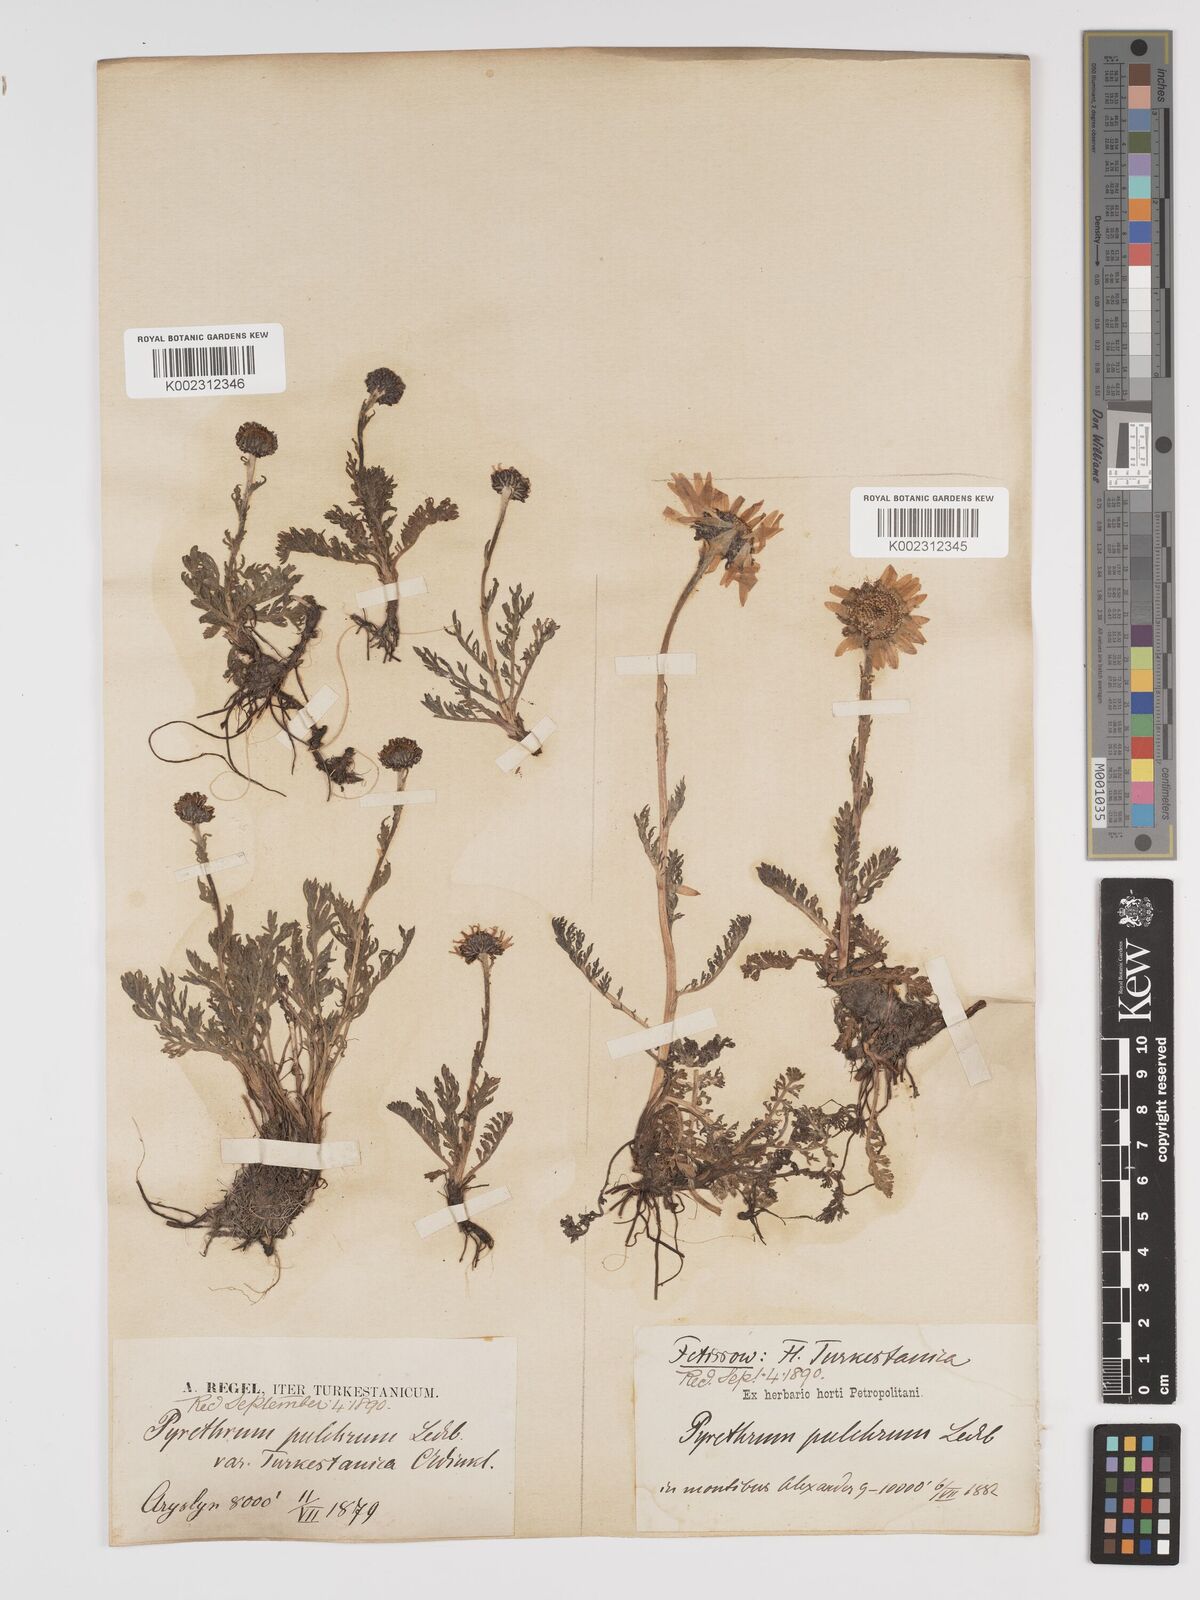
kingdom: Plantae
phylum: Tracheophyta
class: Magnoliopsida
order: Asterales
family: Asteraceae
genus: Tanacetum
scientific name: Tanacetum pulchrum
